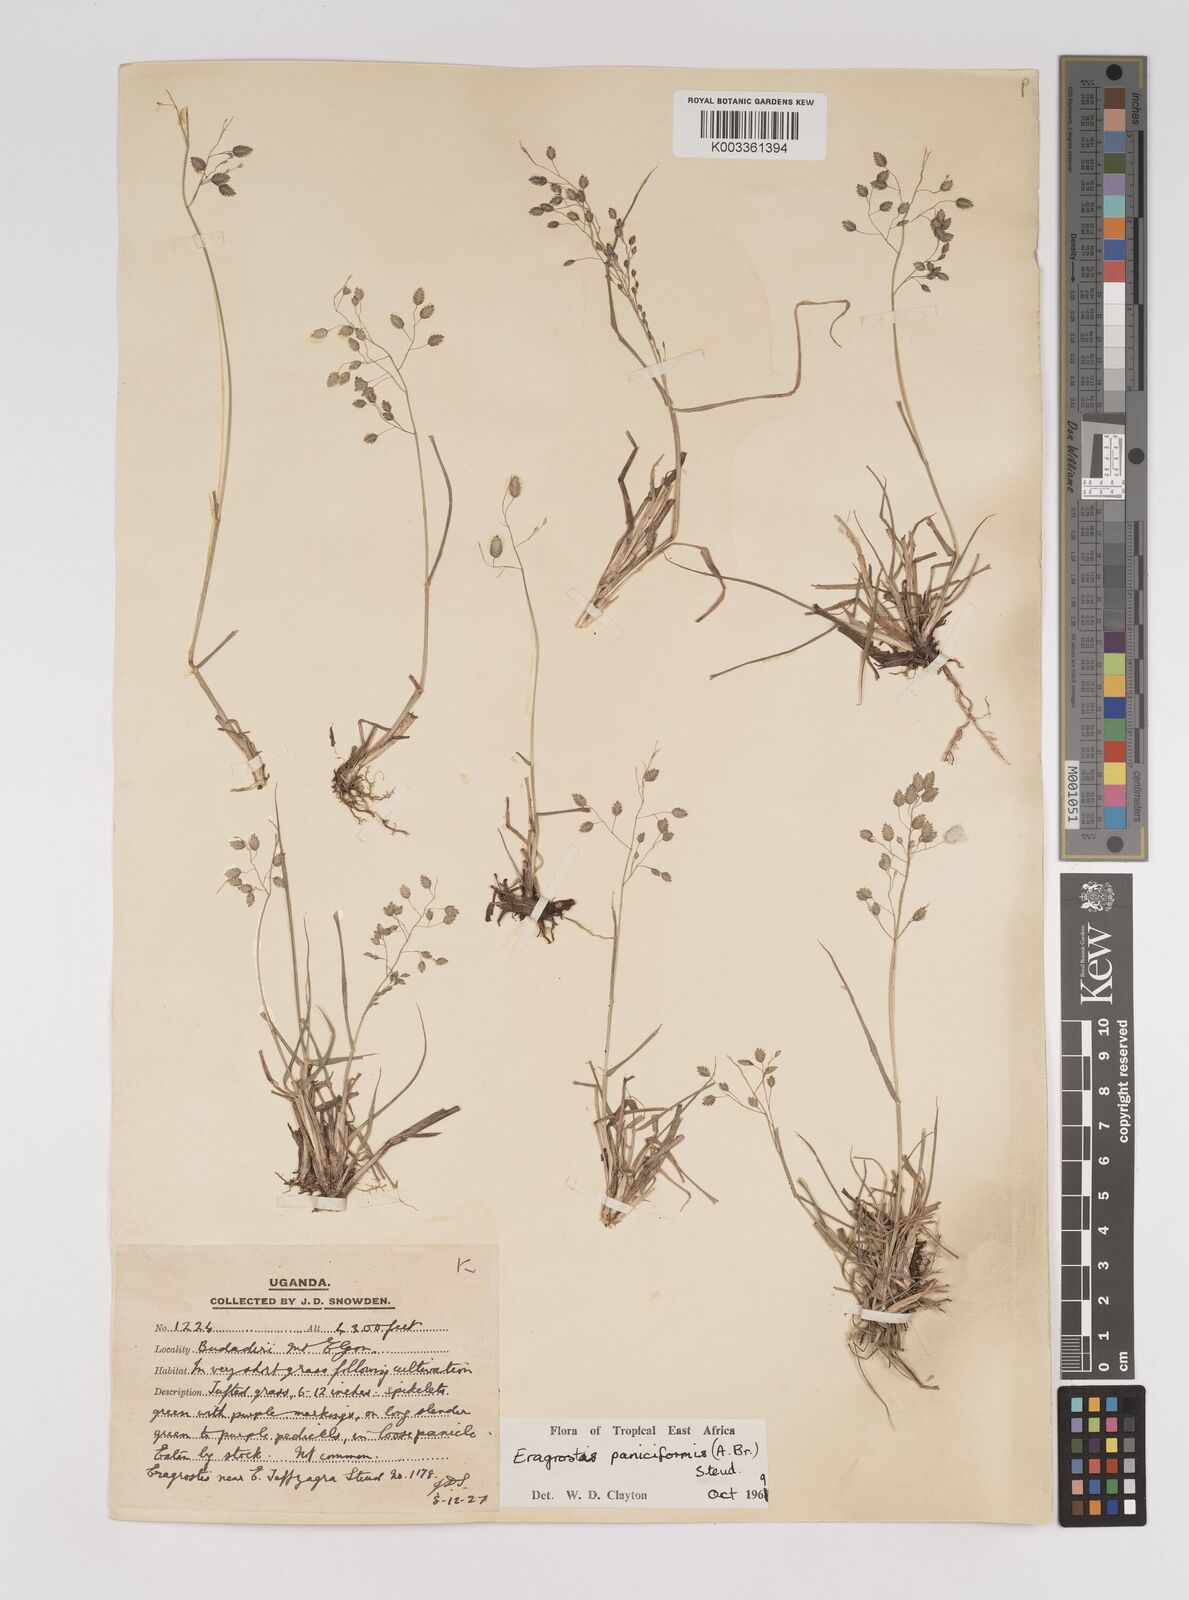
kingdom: Plantae
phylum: Tracheophyta
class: Liliopsida
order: Poales
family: Poaceae
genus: Eragrostis
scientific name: Eragrostis paniciformis
